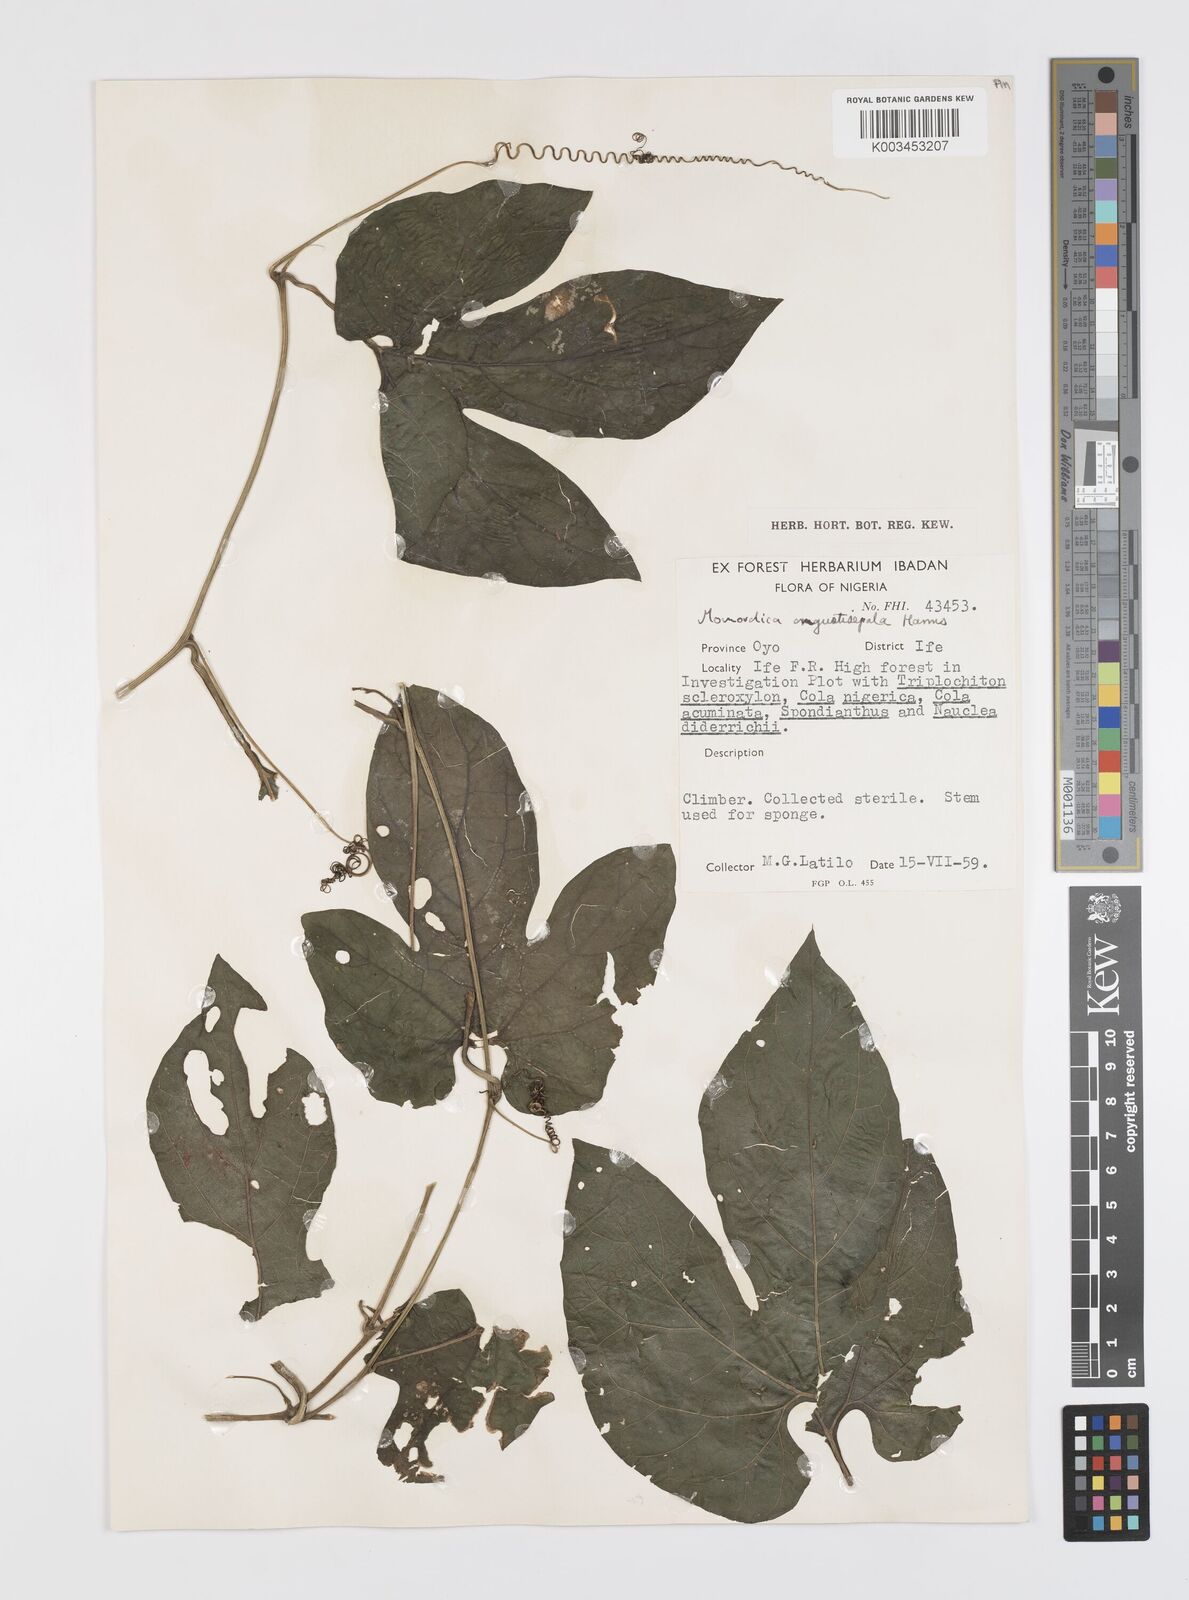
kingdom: Plantae
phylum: Tracheophyta
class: Magnoliopsida
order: Cucurbitales
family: Cucurbitaceae
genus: Momordica
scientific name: Momordica angustisepala
